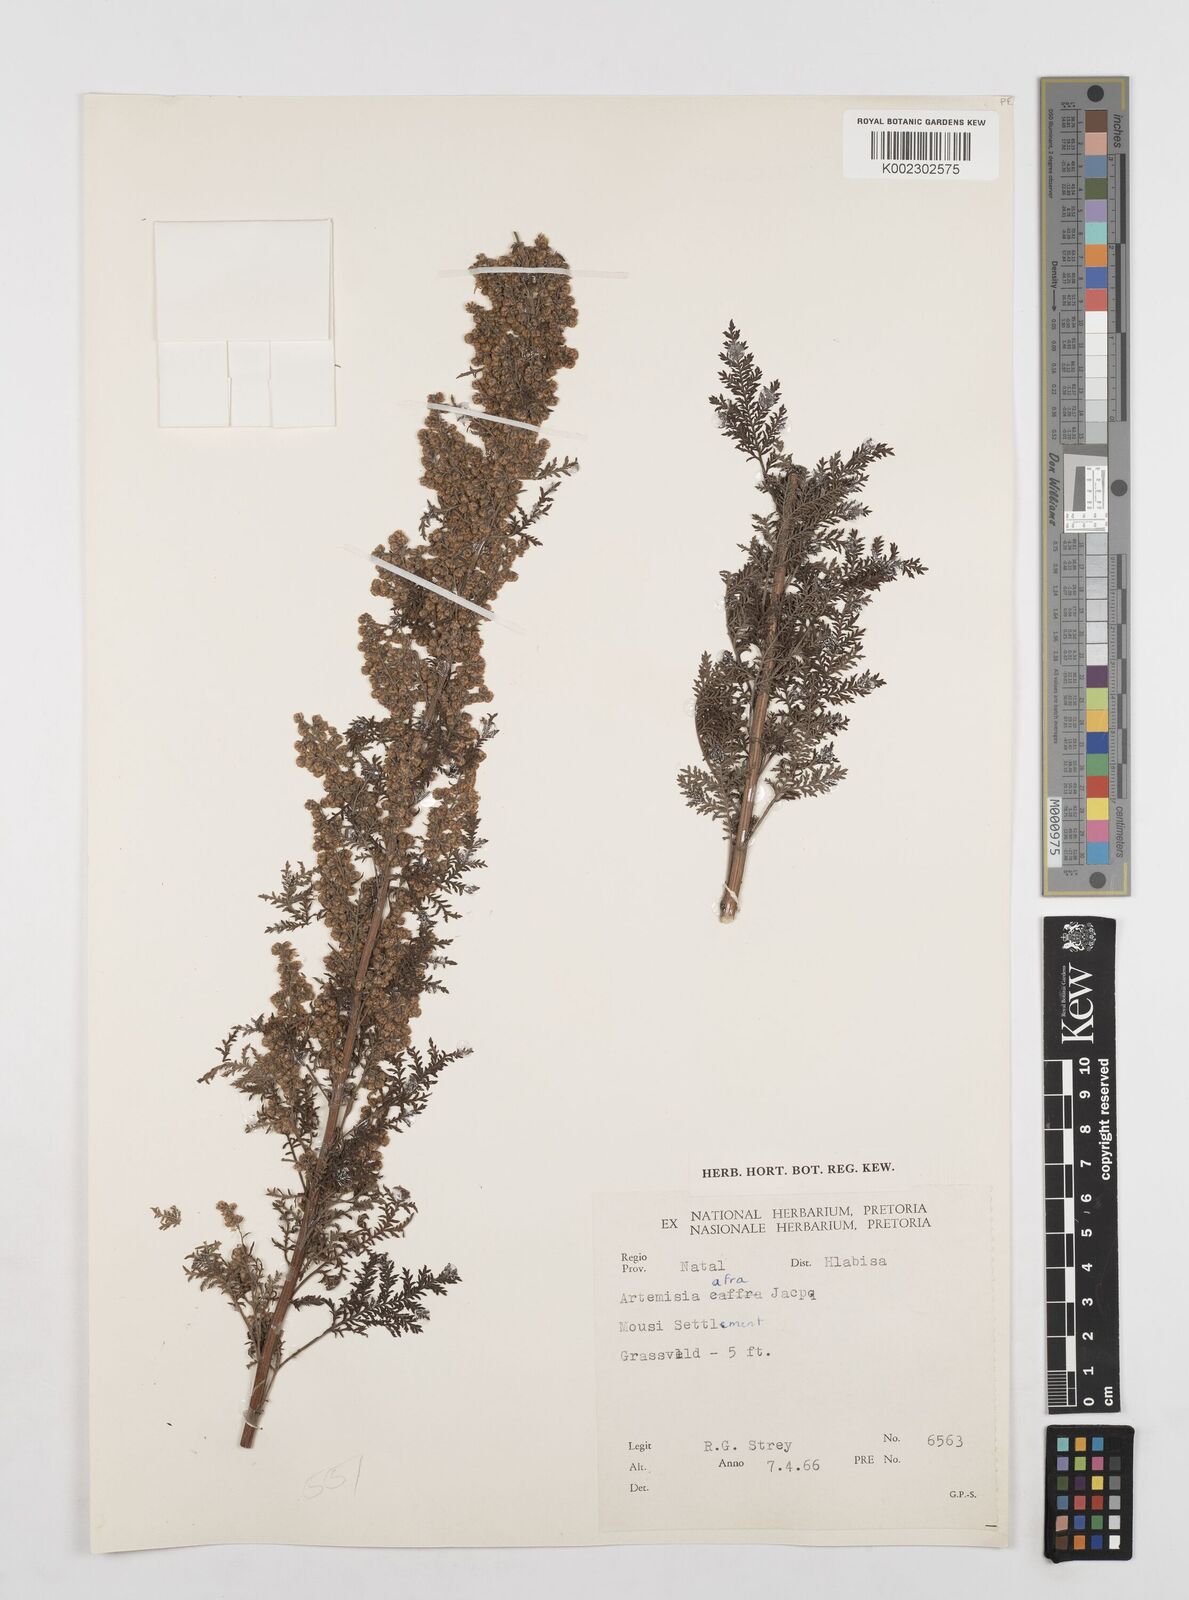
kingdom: Plantae
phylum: Tracheophyta
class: Magnoliopsida
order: Asterales
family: Asteraceae
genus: Artemisia
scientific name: Artemisia afra
